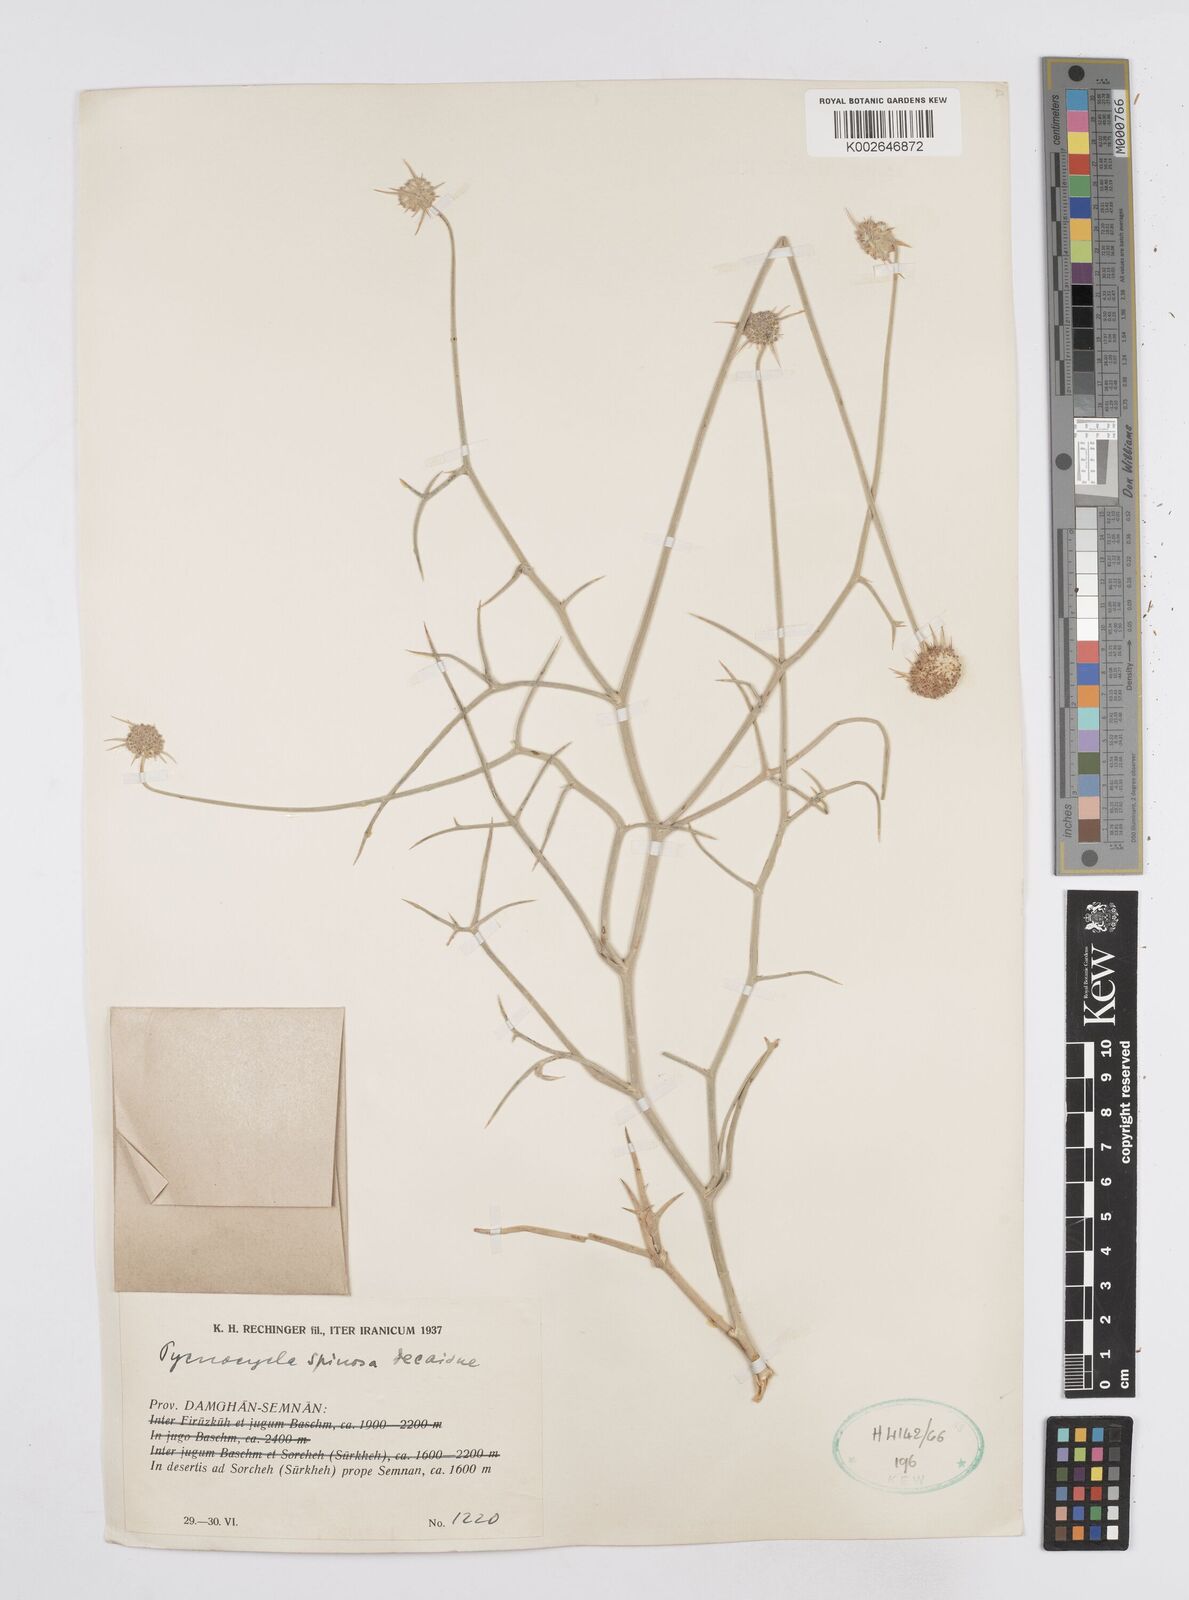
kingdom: Plantae
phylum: Tracheophyta
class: Magnoliopsida
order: Apiales
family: Apiaceae
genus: Pycnocycla
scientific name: Pycnocycla spinosa
